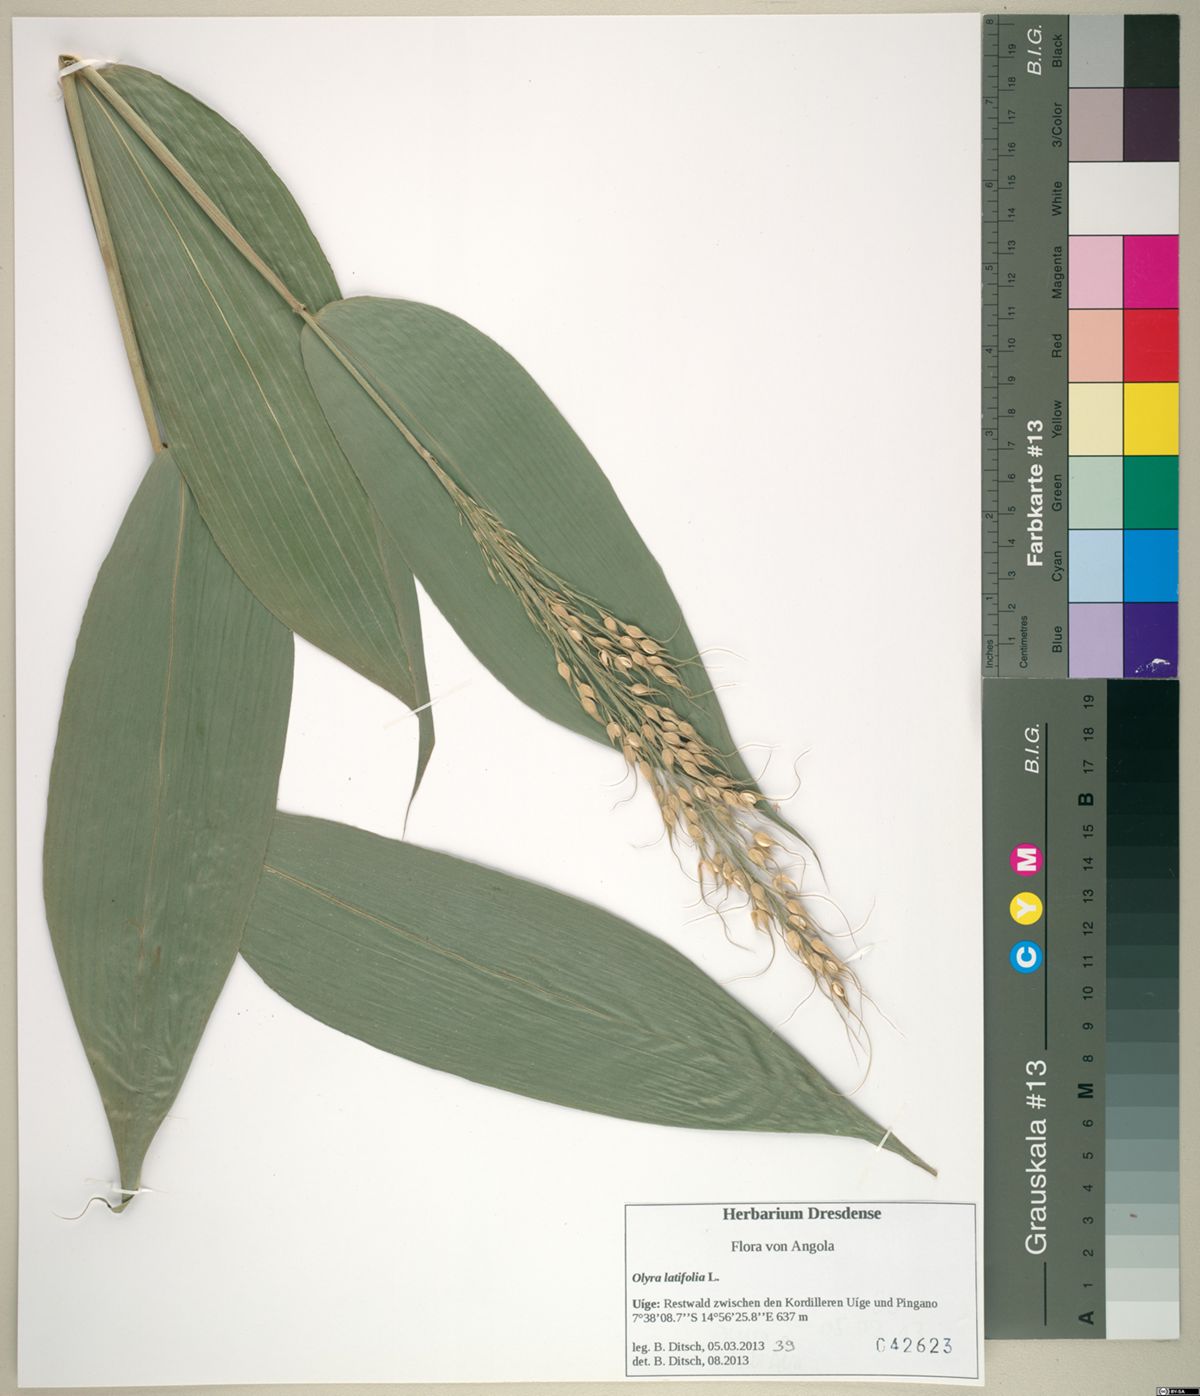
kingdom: Plantae
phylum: Tracheophyta
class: Liliopsida
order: Poales
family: Poaceae
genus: Olyra
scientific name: Olyra latifolia
